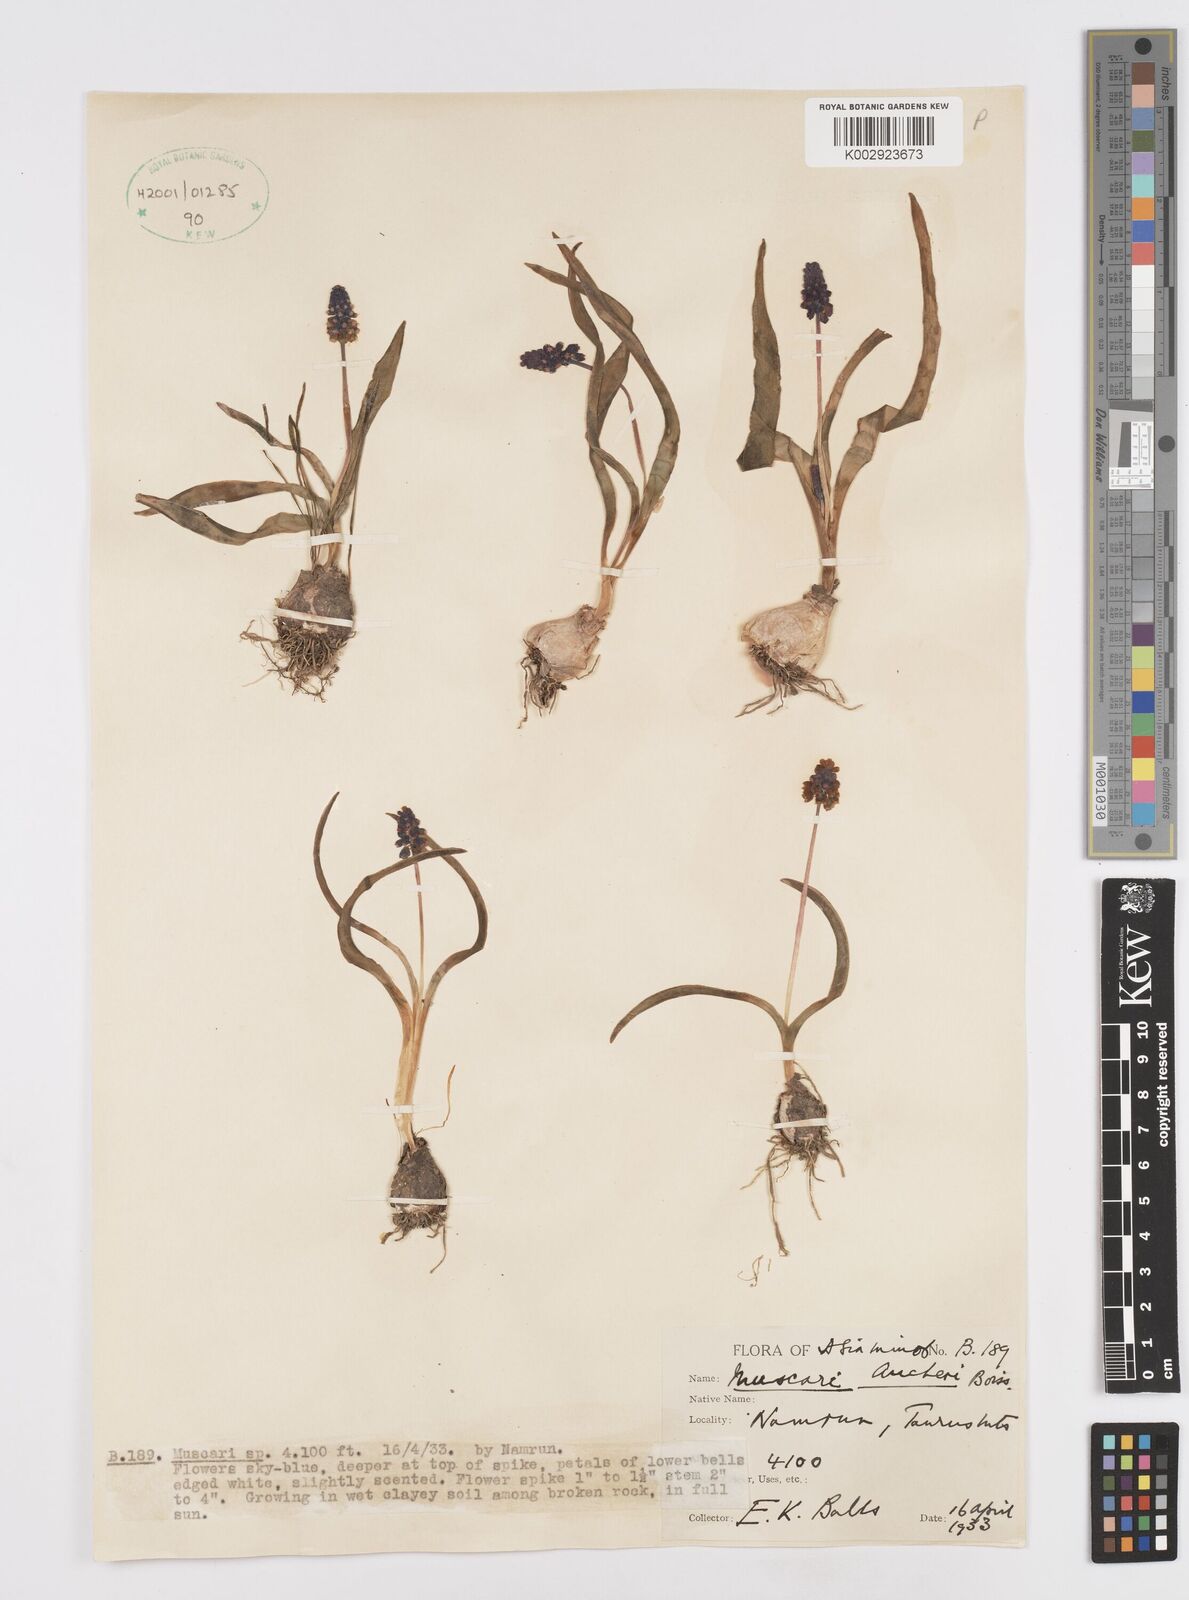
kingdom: Plantae
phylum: Tracheophyta
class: Liliopsida
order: Asparagales
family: Asparagaceae
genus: Muscari
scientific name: Muscari aucheri
